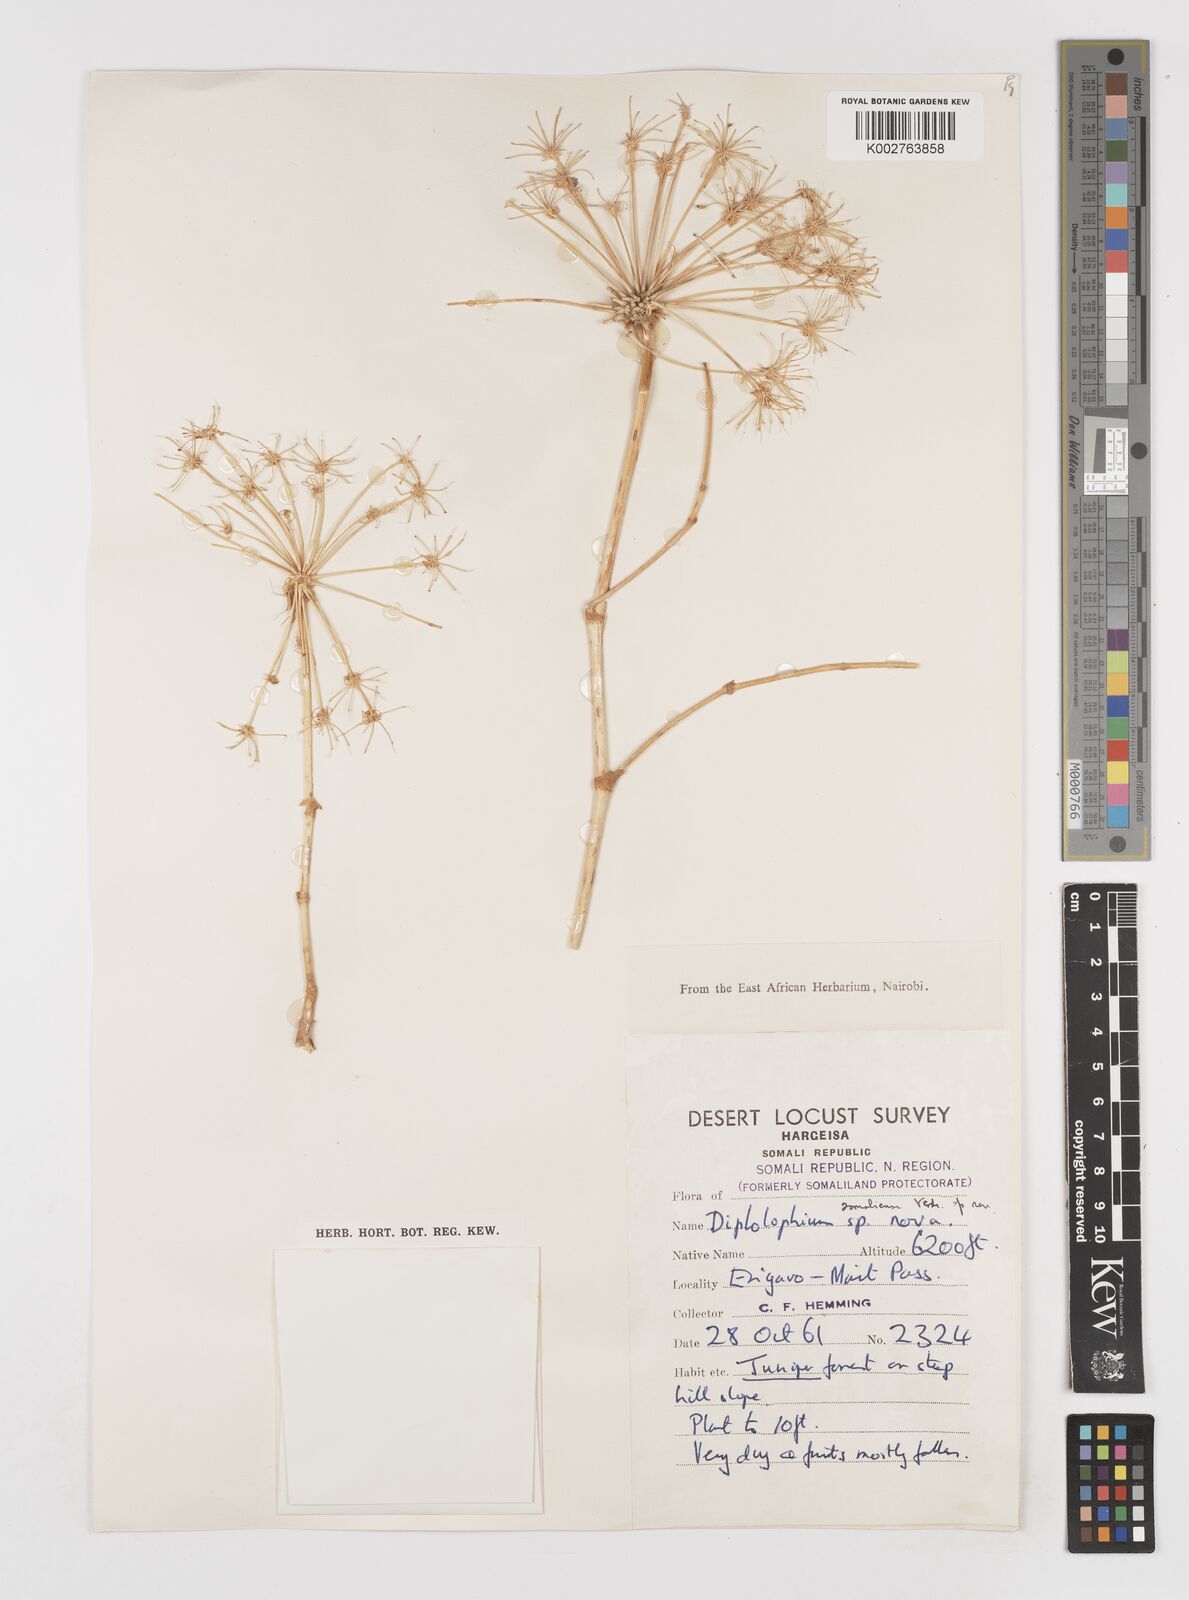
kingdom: Plantae
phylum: Tracheophyta
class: Magnoliopsida
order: Apiales
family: Apiaceae
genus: Diplolophium
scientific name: Diplolophium somaliense
